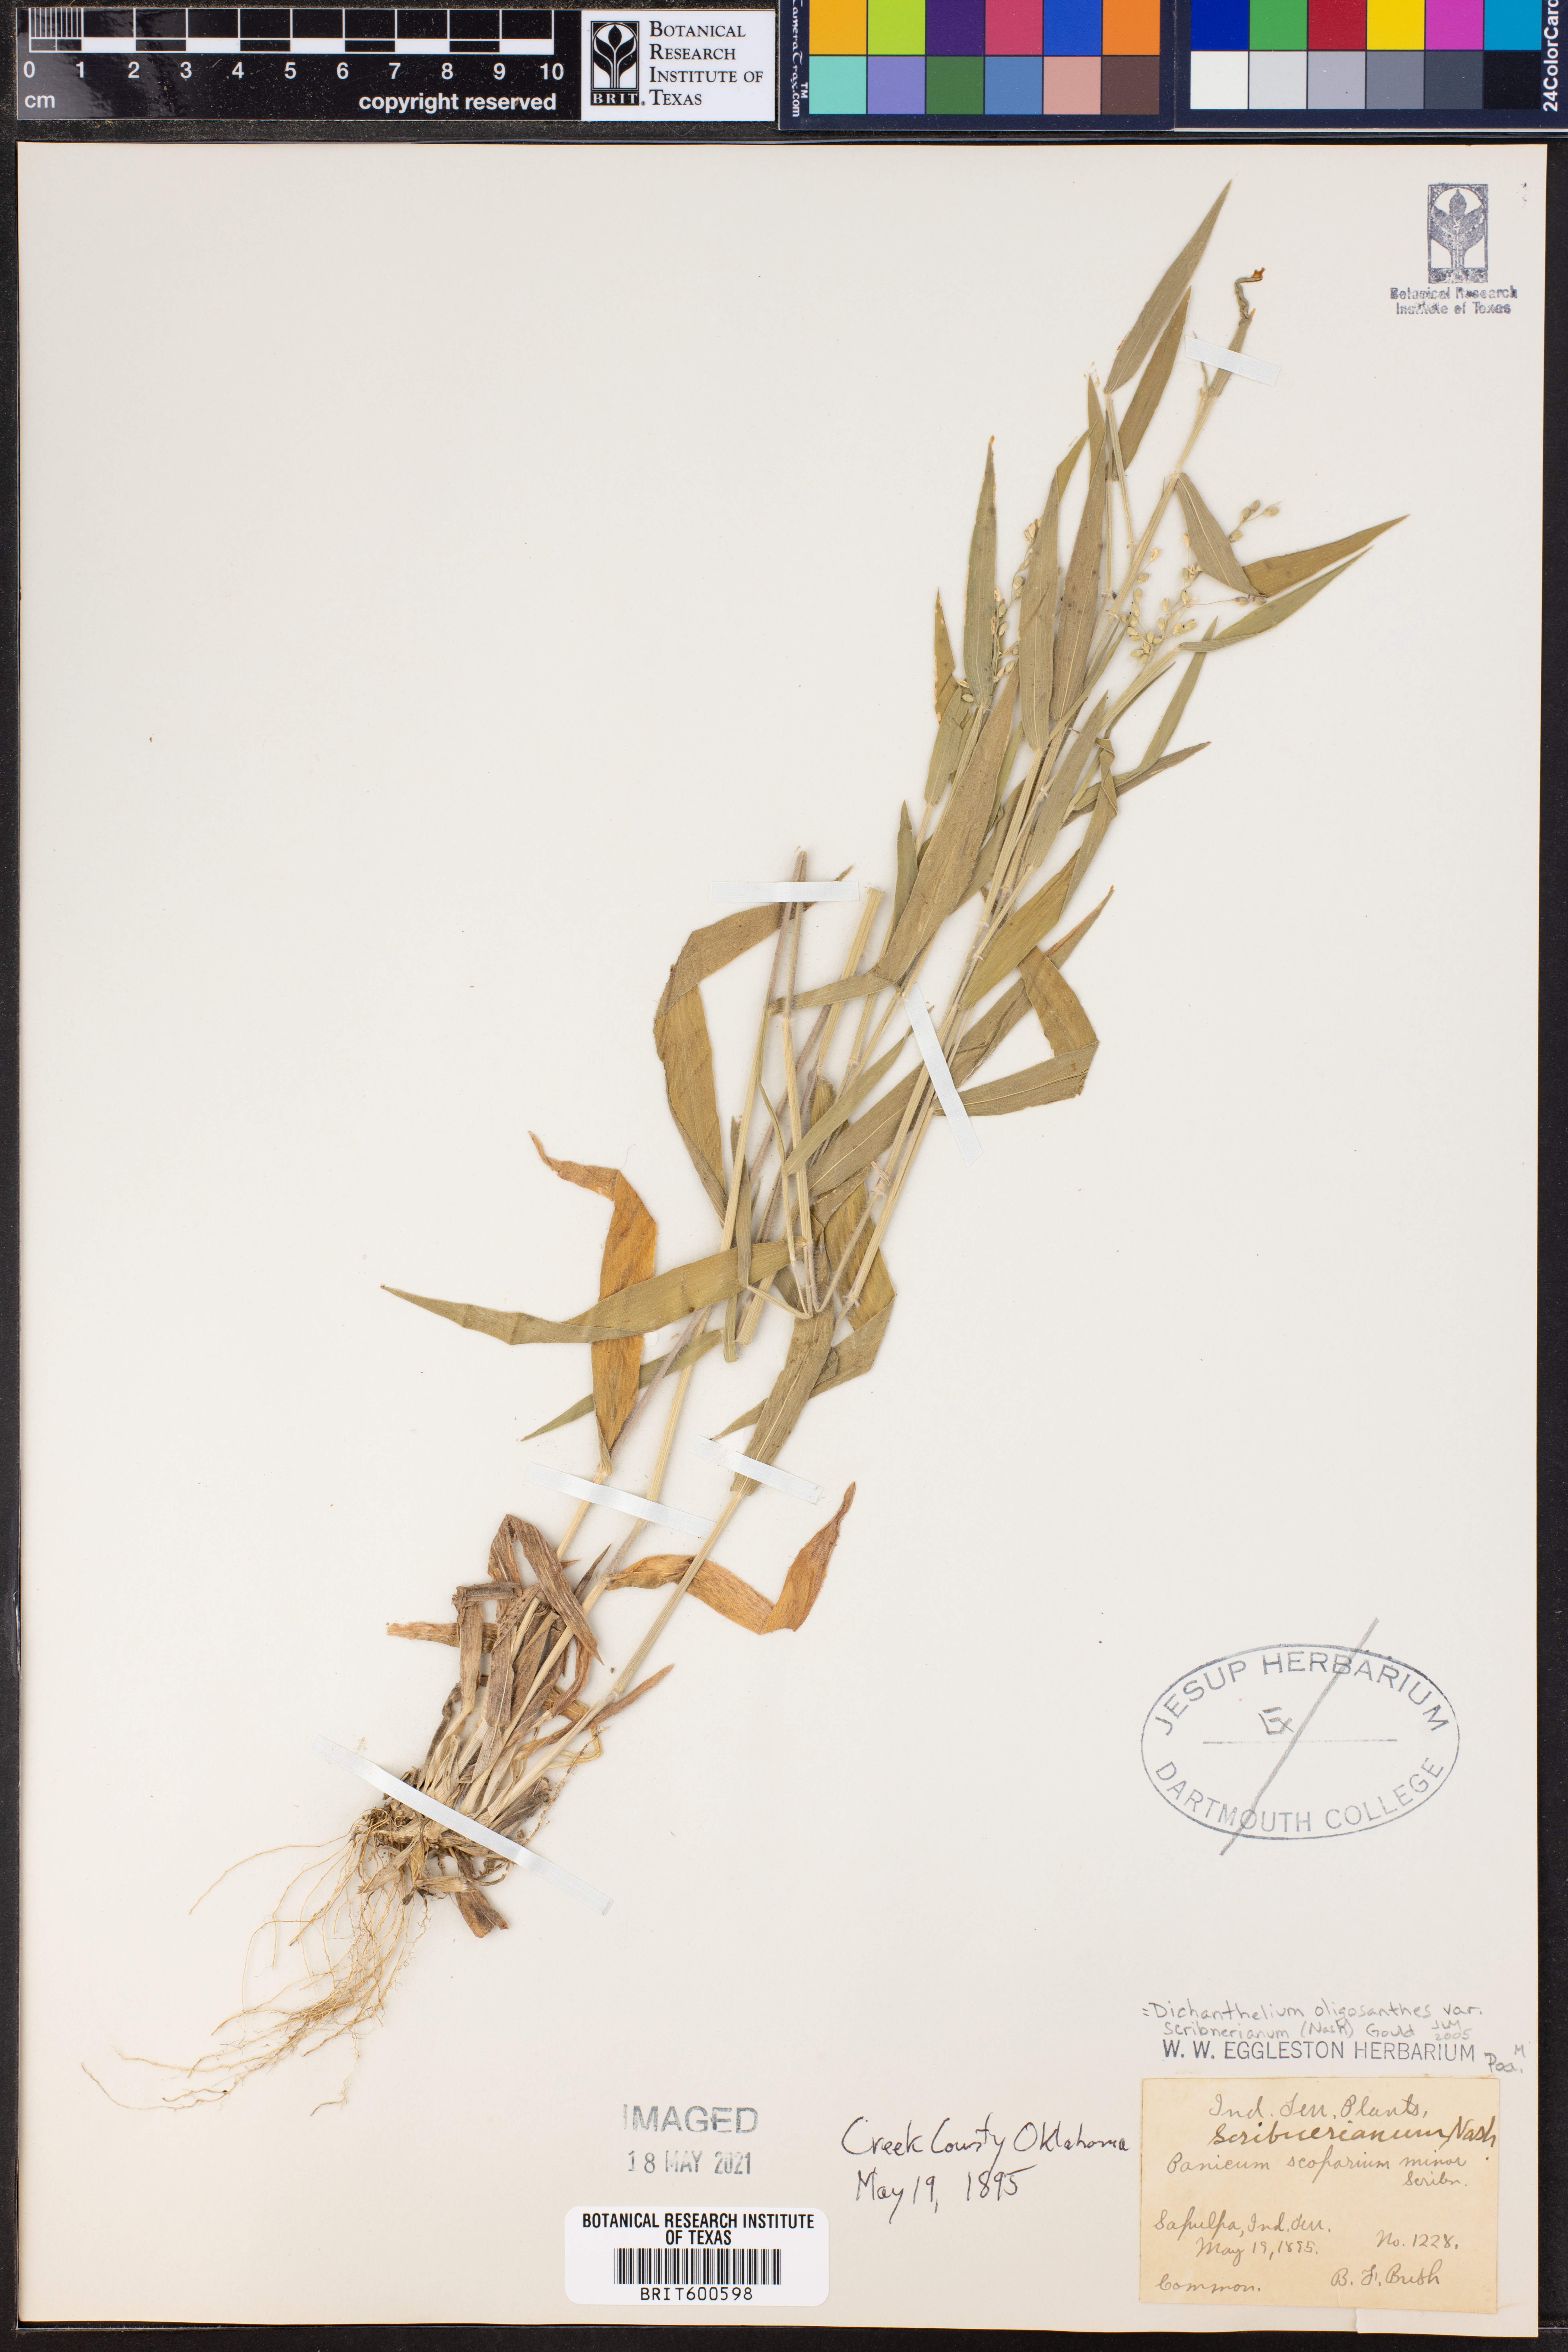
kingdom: Plantae
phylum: Tracheophyta
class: Liliopsida
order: Poales
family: Poaceae
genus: Dichanthelium
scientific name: Dichanthelium scribnerianum
